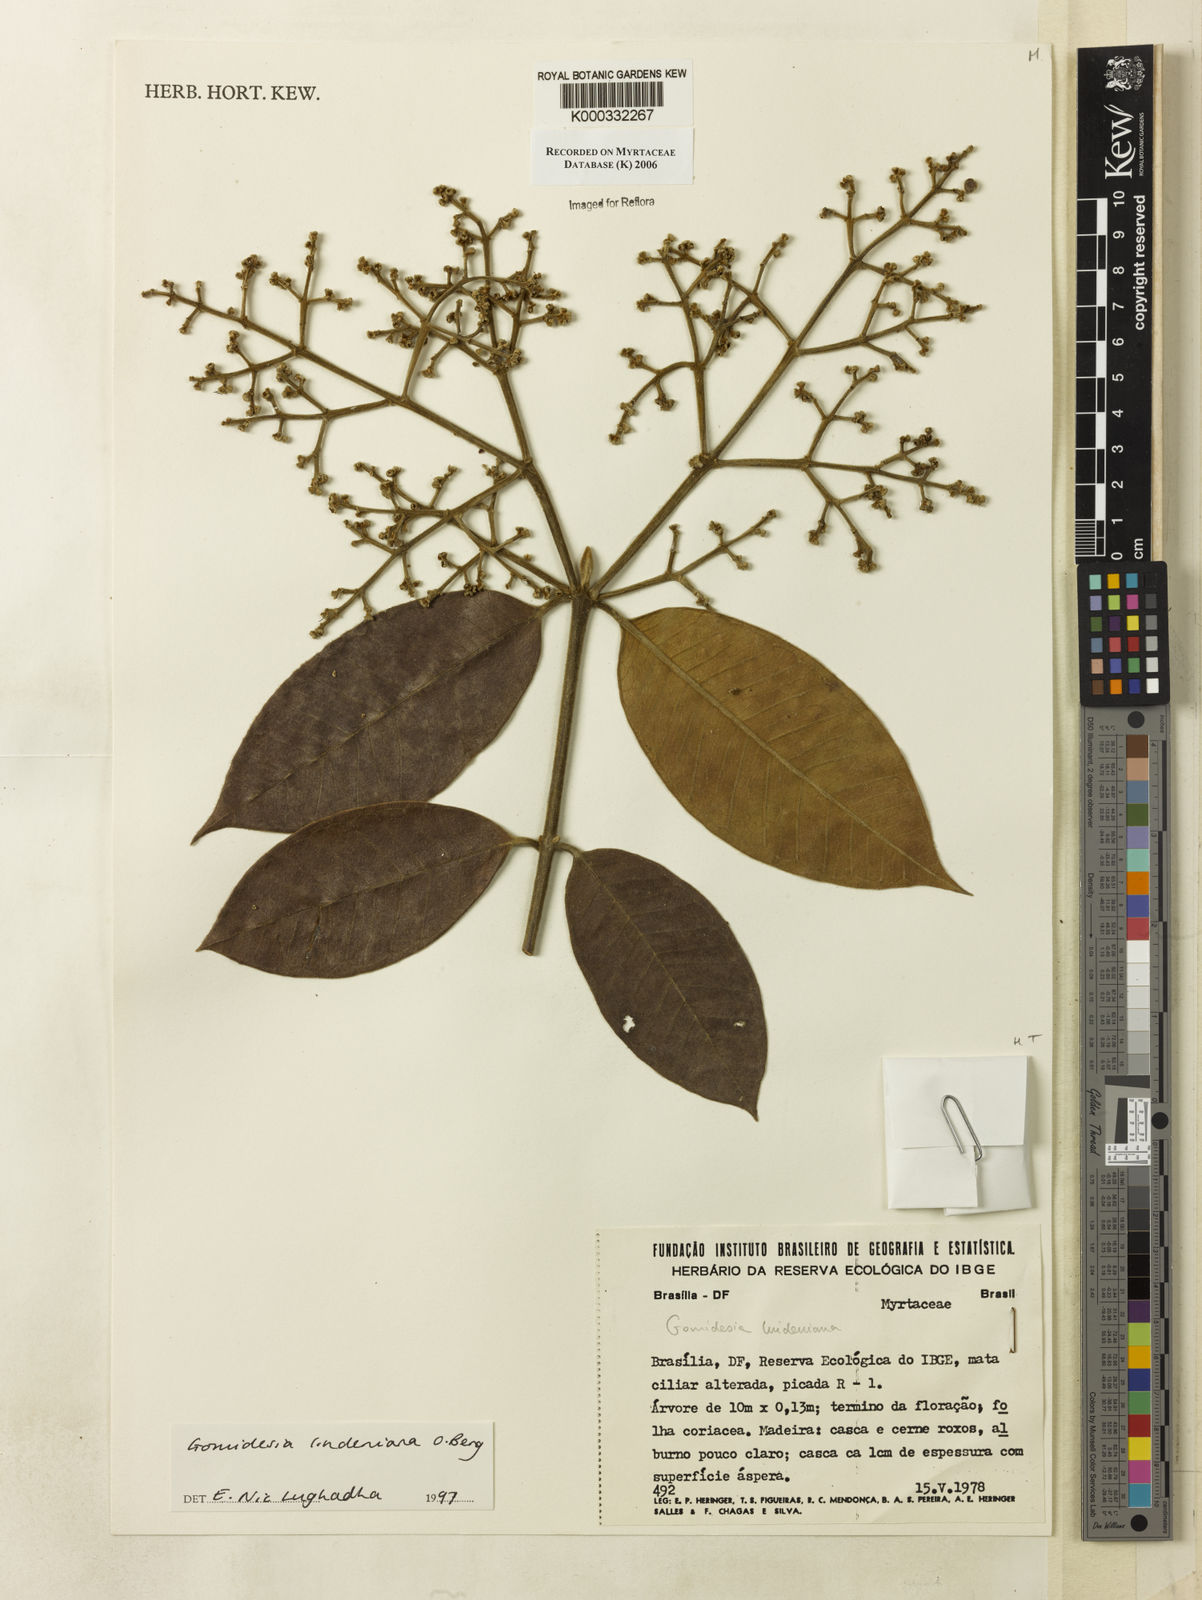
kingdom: Plantae
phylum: Tracheophyta
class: Magnoliopsida
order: Myrtales
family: Myrtaceae
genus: Myrcia
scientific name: Myrcia fenzliana
